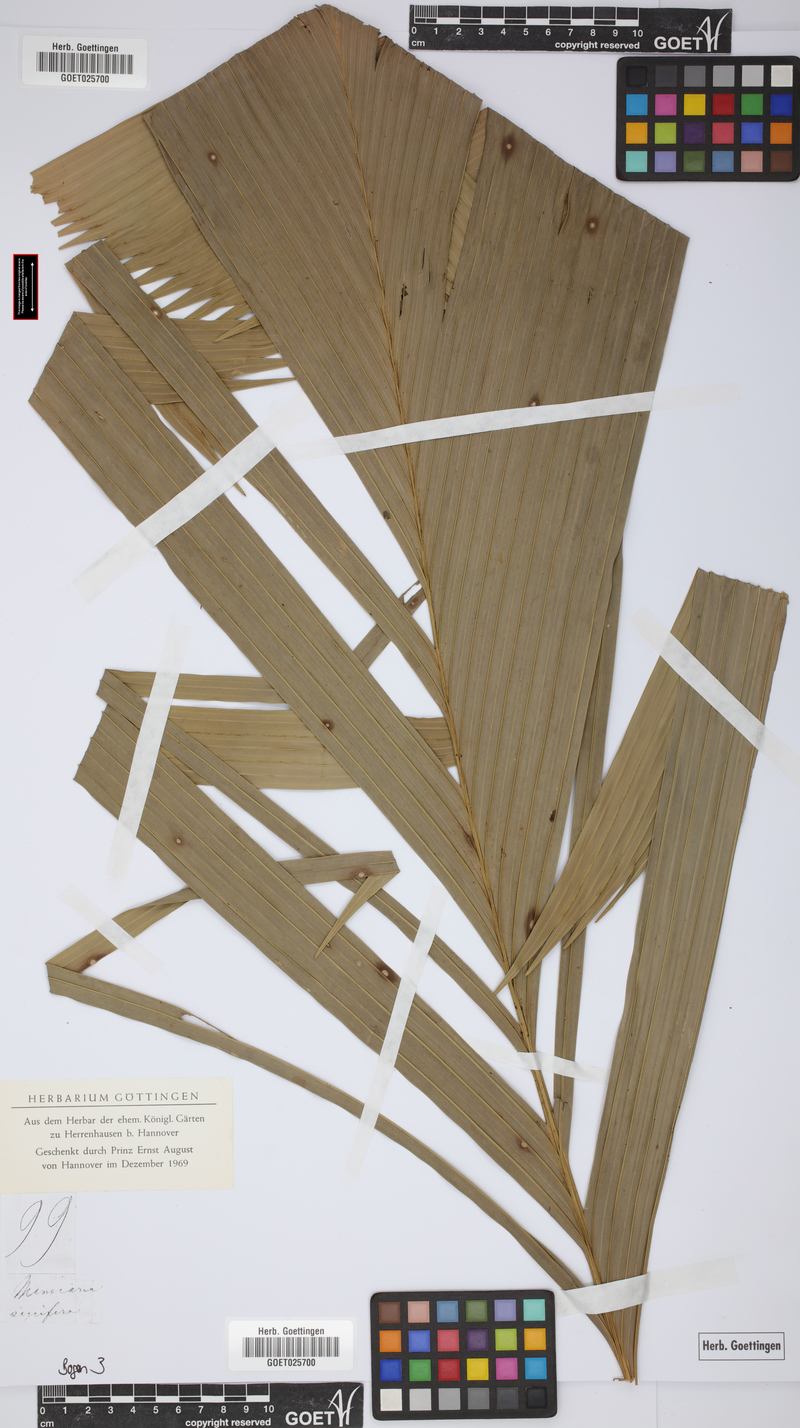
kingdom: Plantae
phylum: Tracheophyta
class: Liliopsida
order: Arecales
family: Arecaceae
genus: Manicaria
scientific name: Manicaria saccifera
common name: Sea coconut
